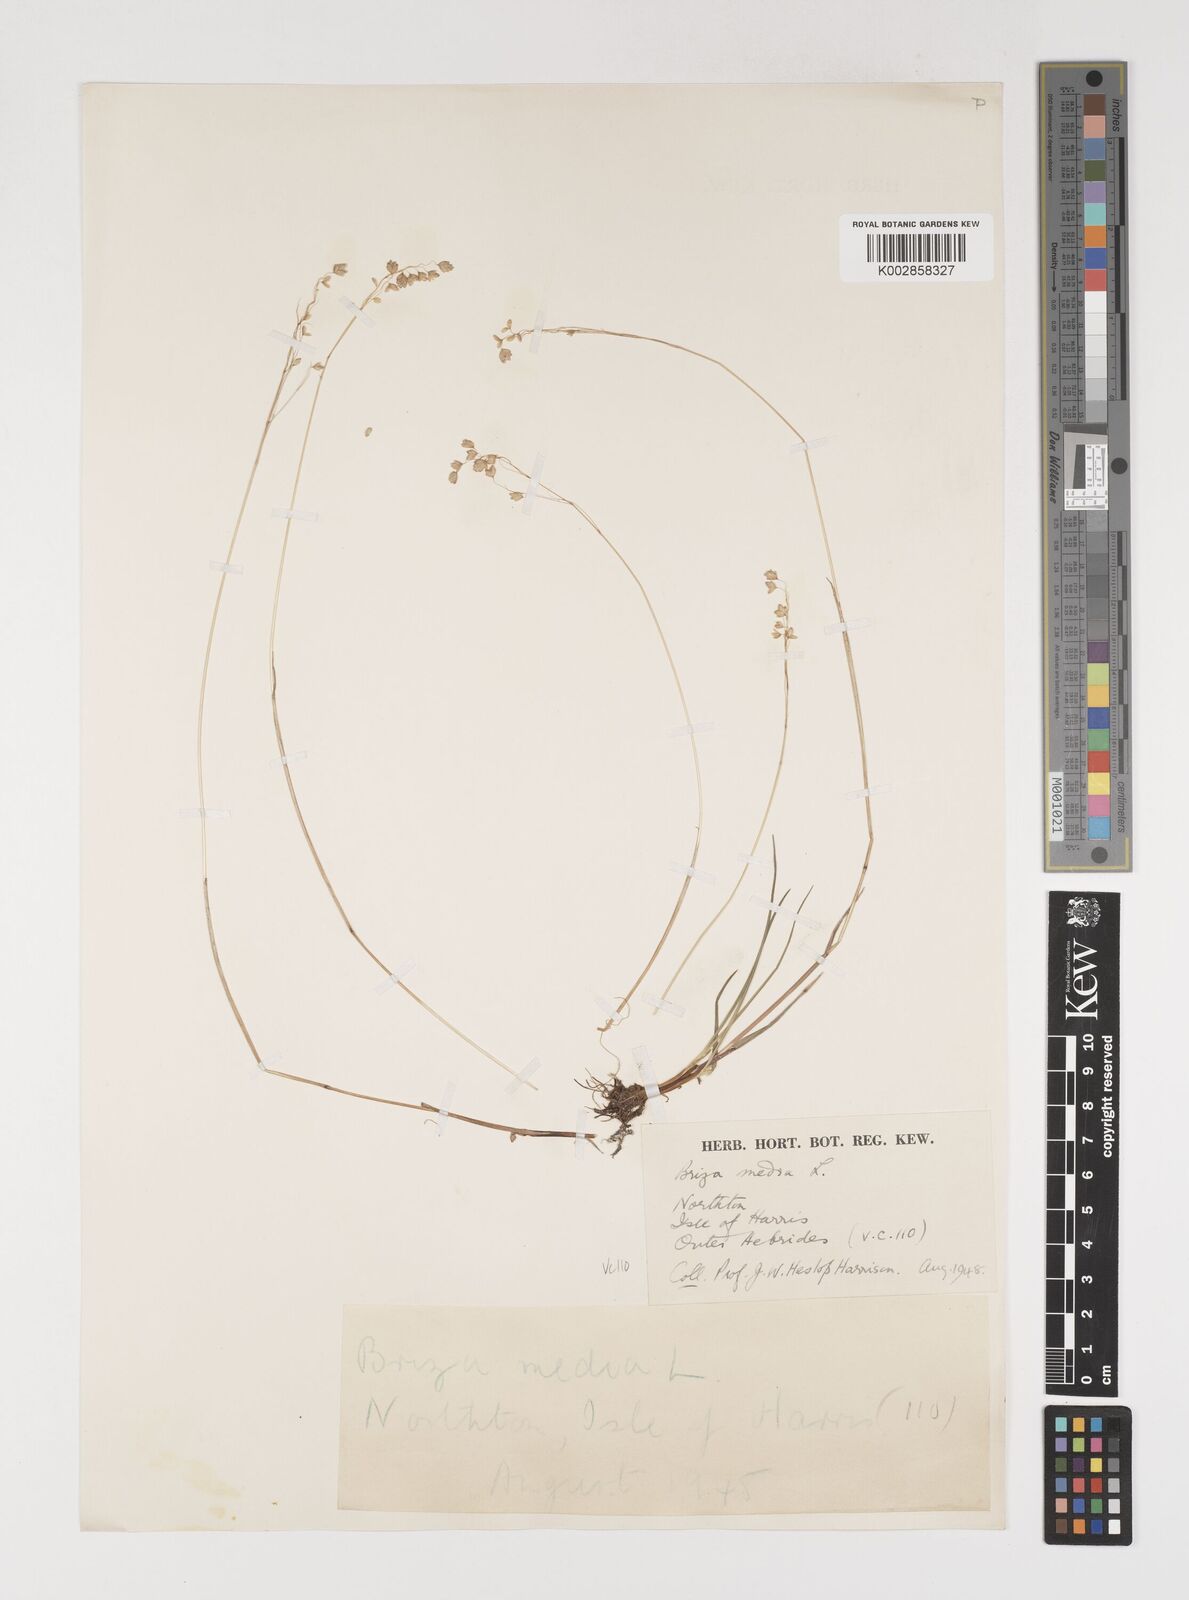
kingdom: Plantae
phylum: Tracheophyta
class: Liliopsida
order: Poales
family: Poaceae
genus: Briza
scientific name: Briza media
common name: Quaking grass
